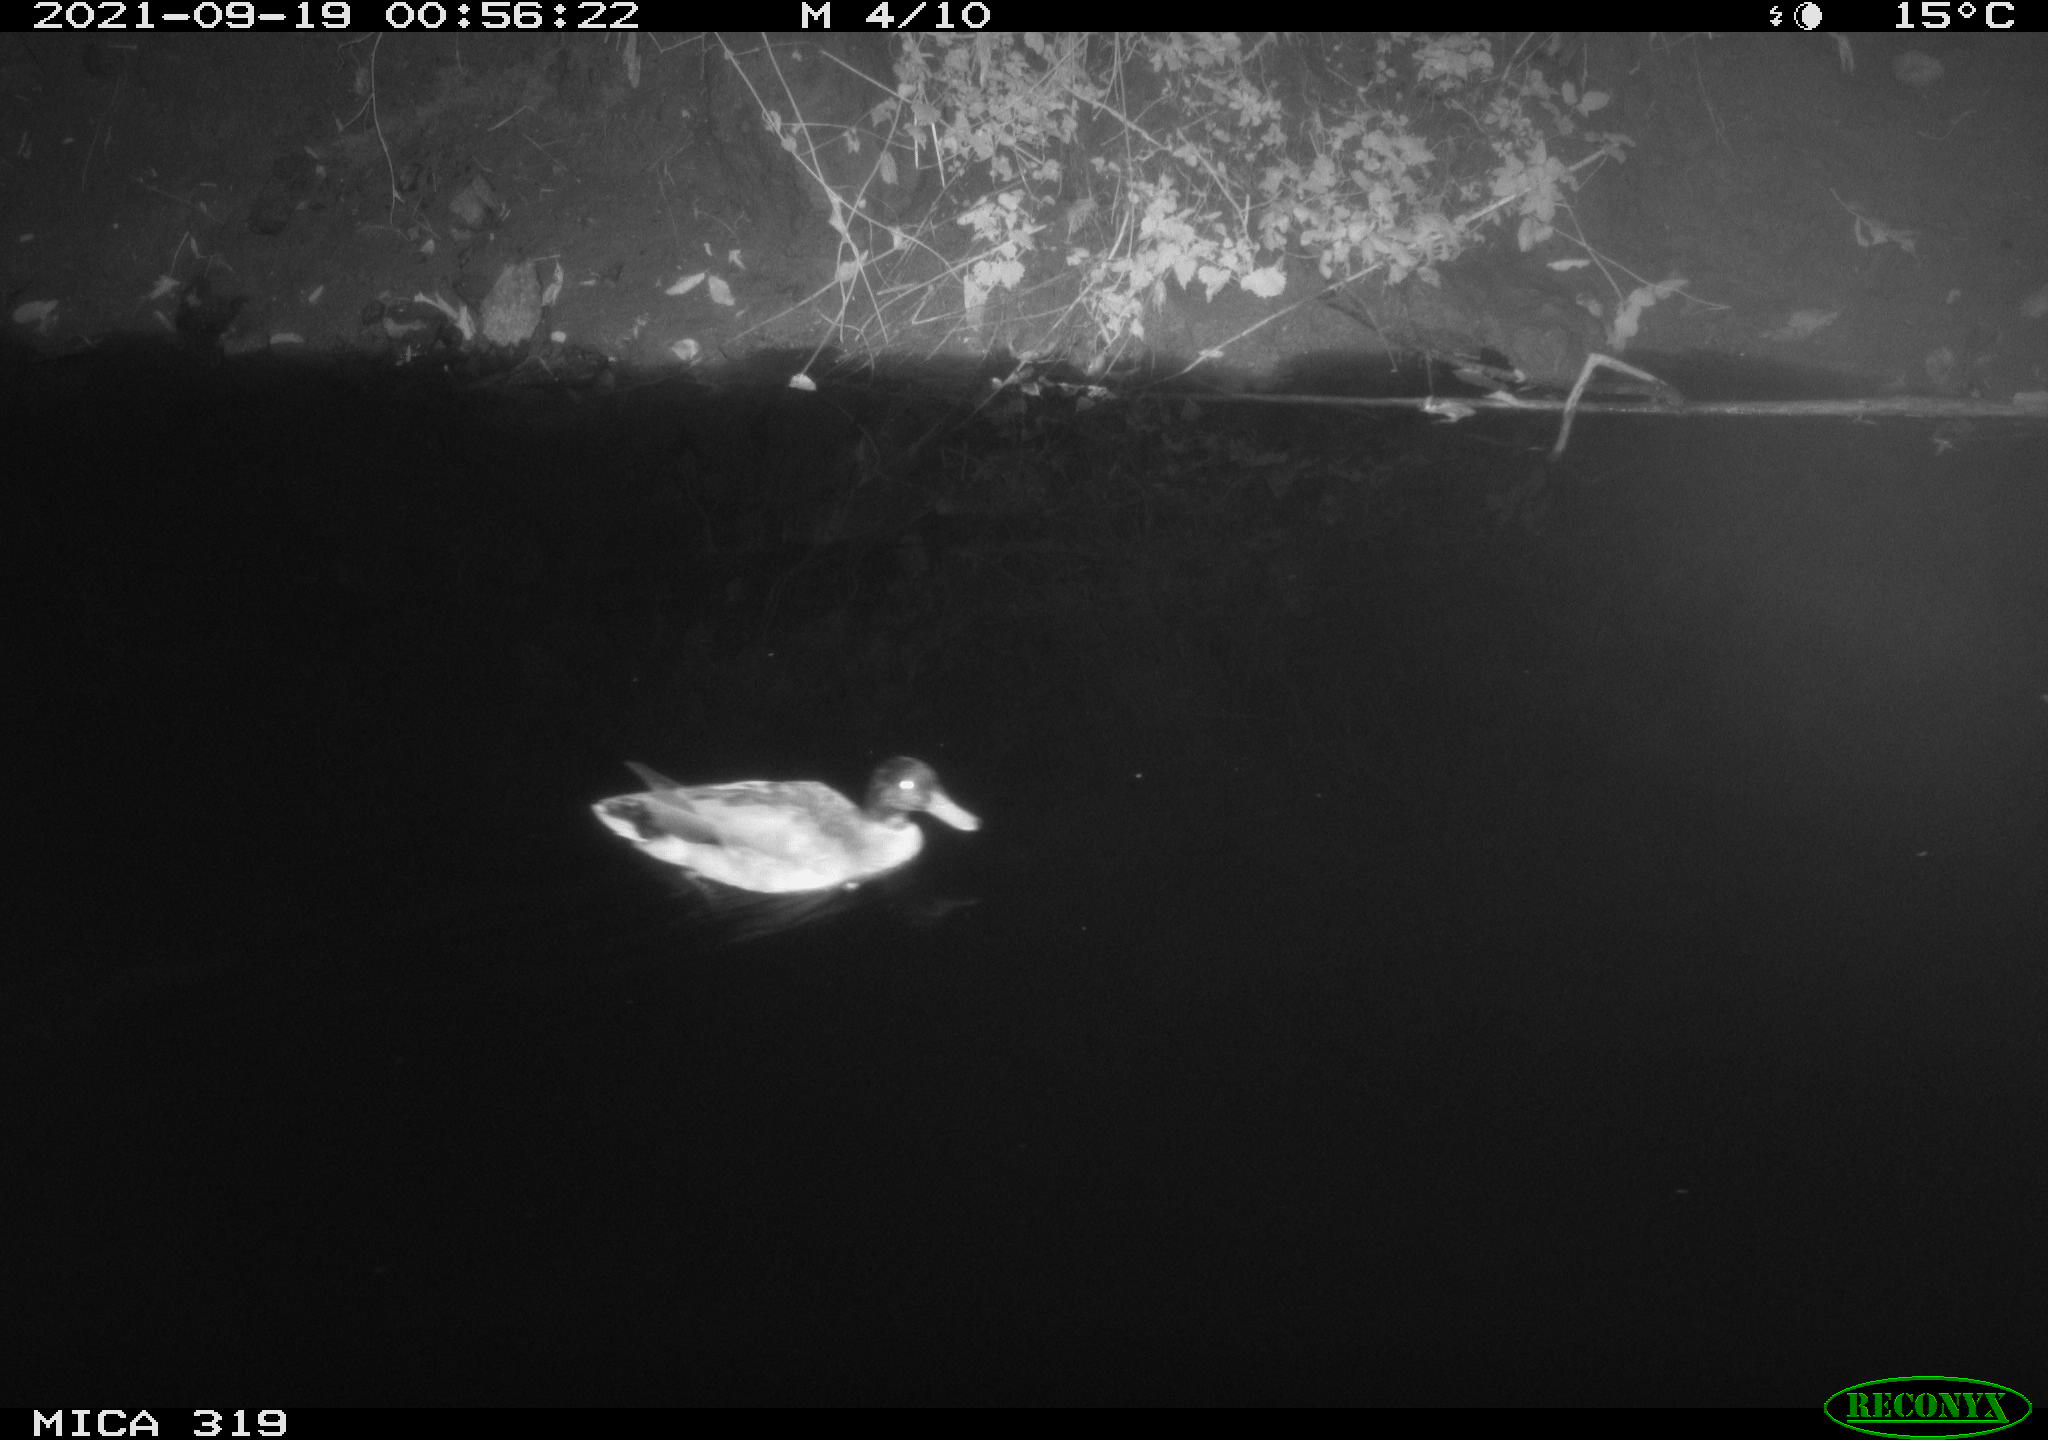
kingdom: Animalia
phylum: Chordata
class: Aves
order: Anseriformes
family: Anatidae
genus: Anas
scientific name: Anas platyrhynchos
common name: Mallard
